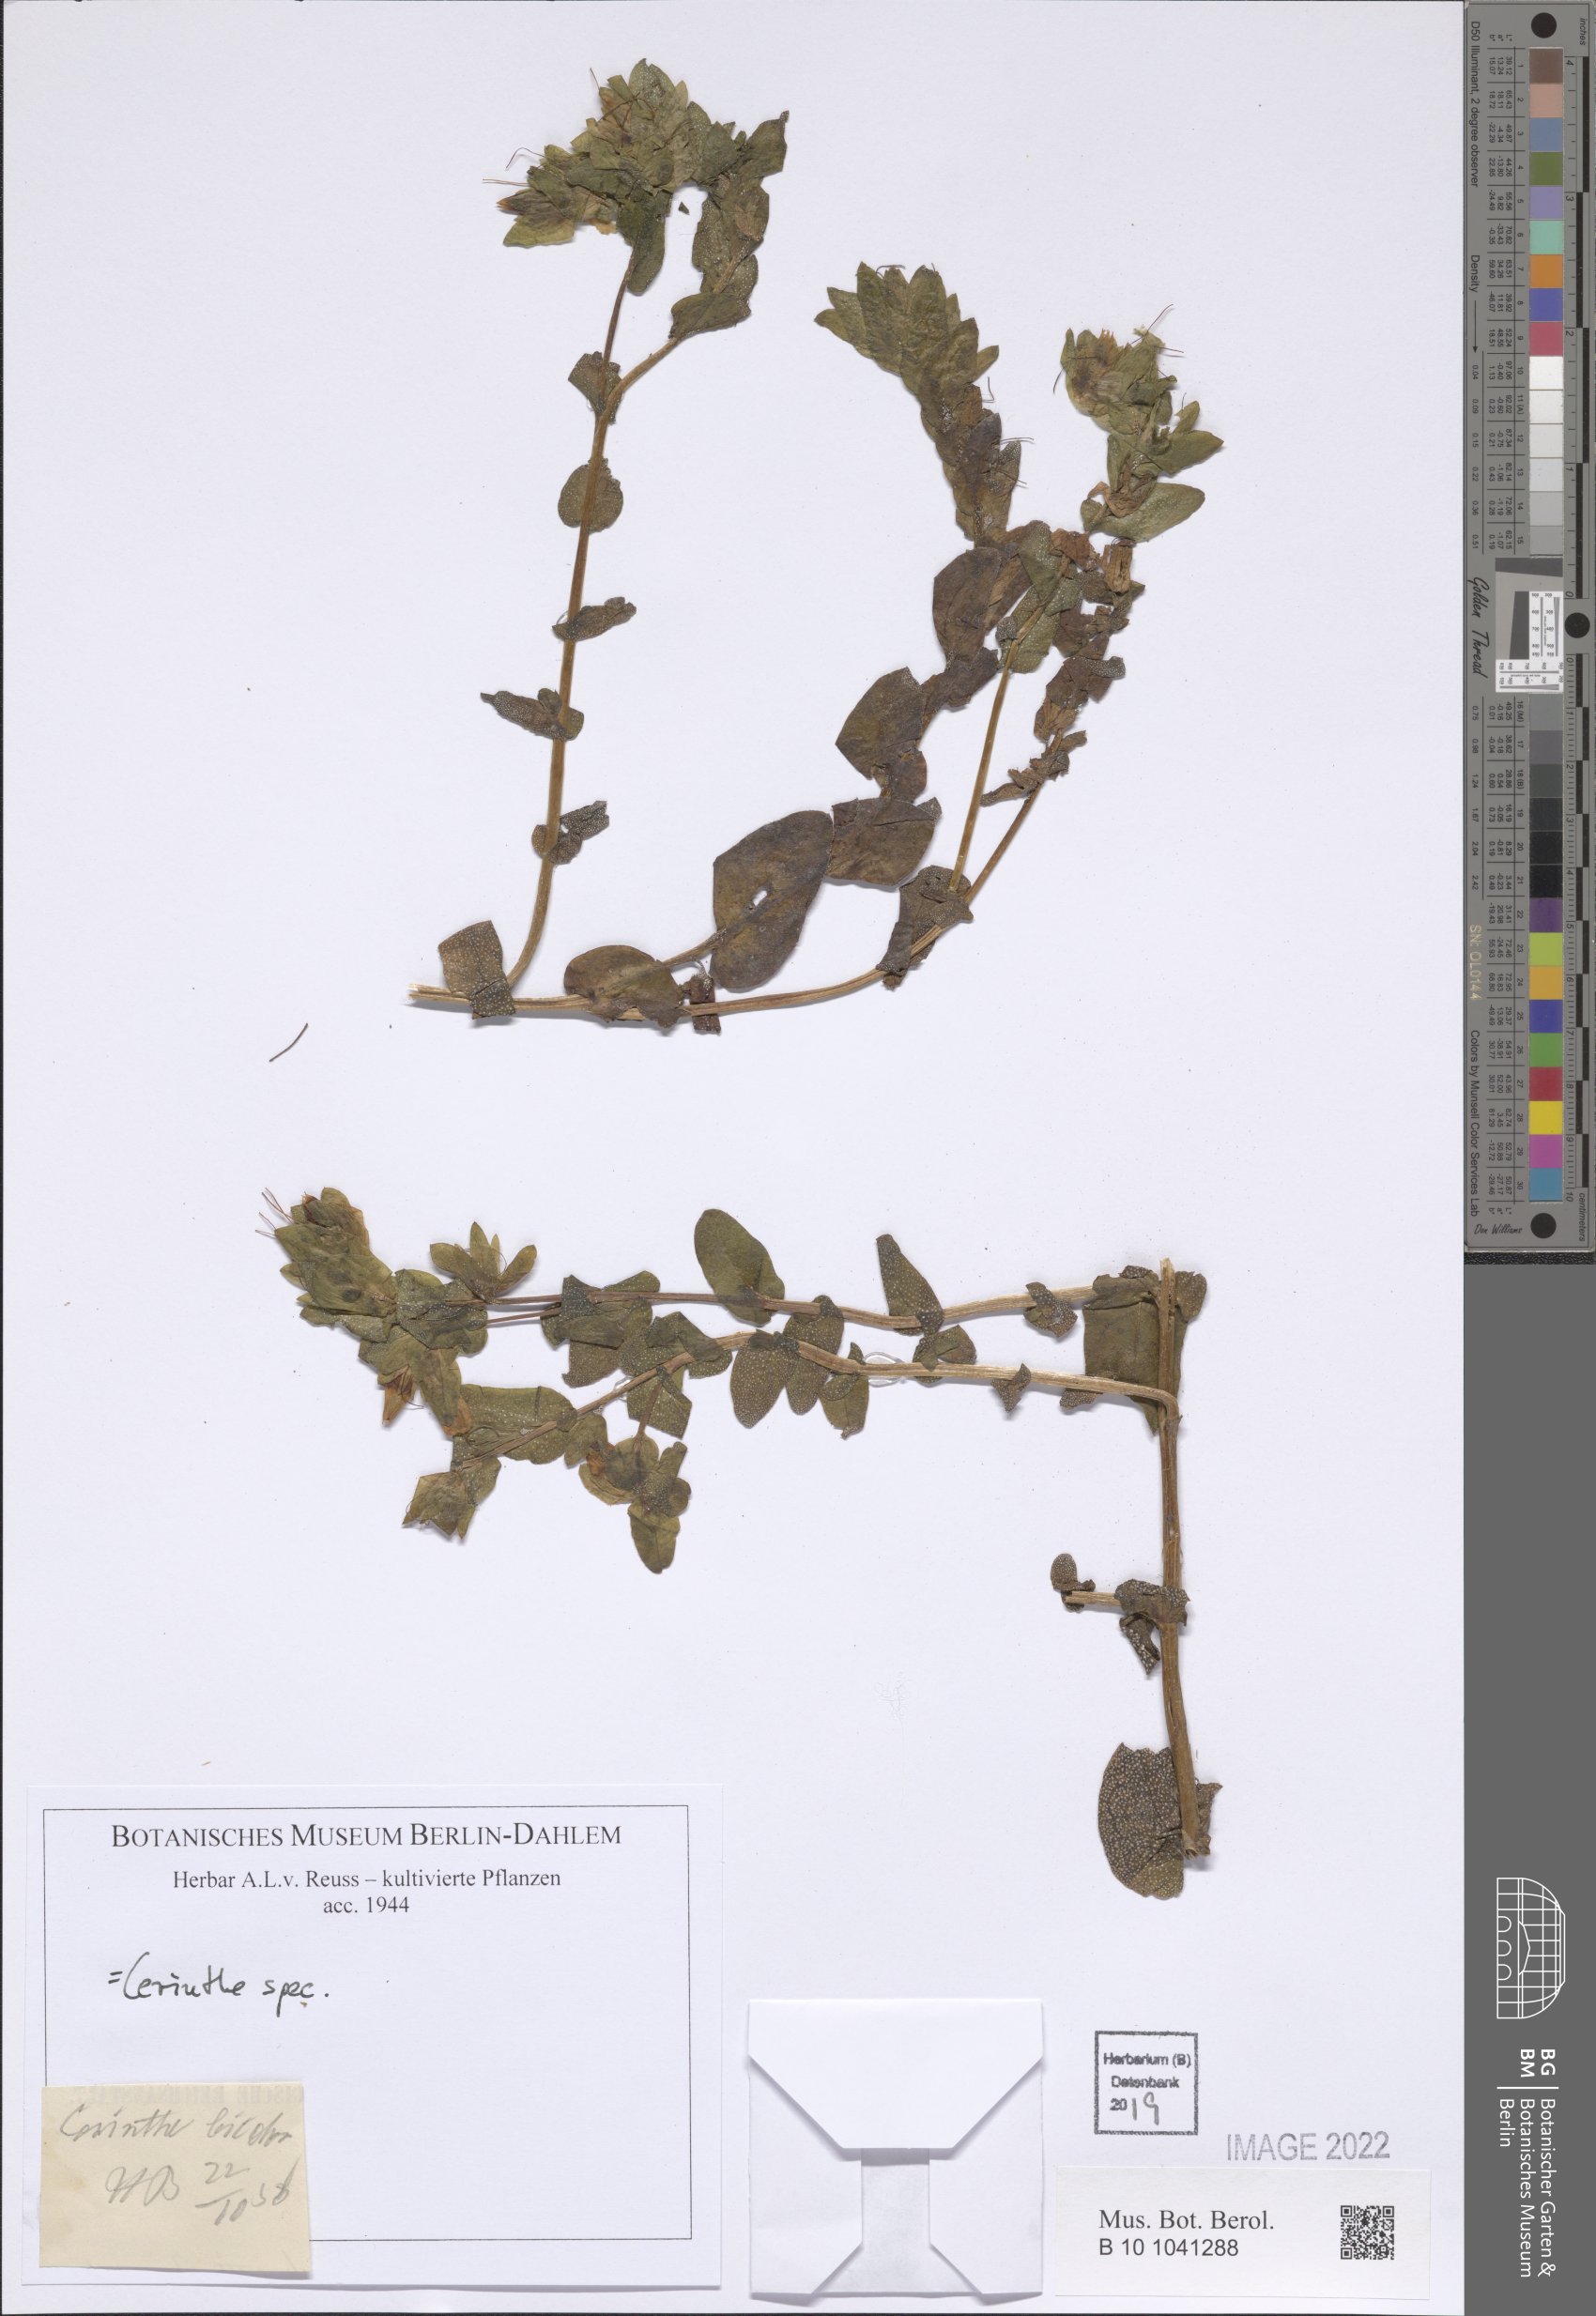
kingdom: Plantae
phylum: Tracheophyta
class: Magnoliopsida
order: Boraginales
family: Boraginaceae
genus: Cerinthe
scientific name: Cerinthe
